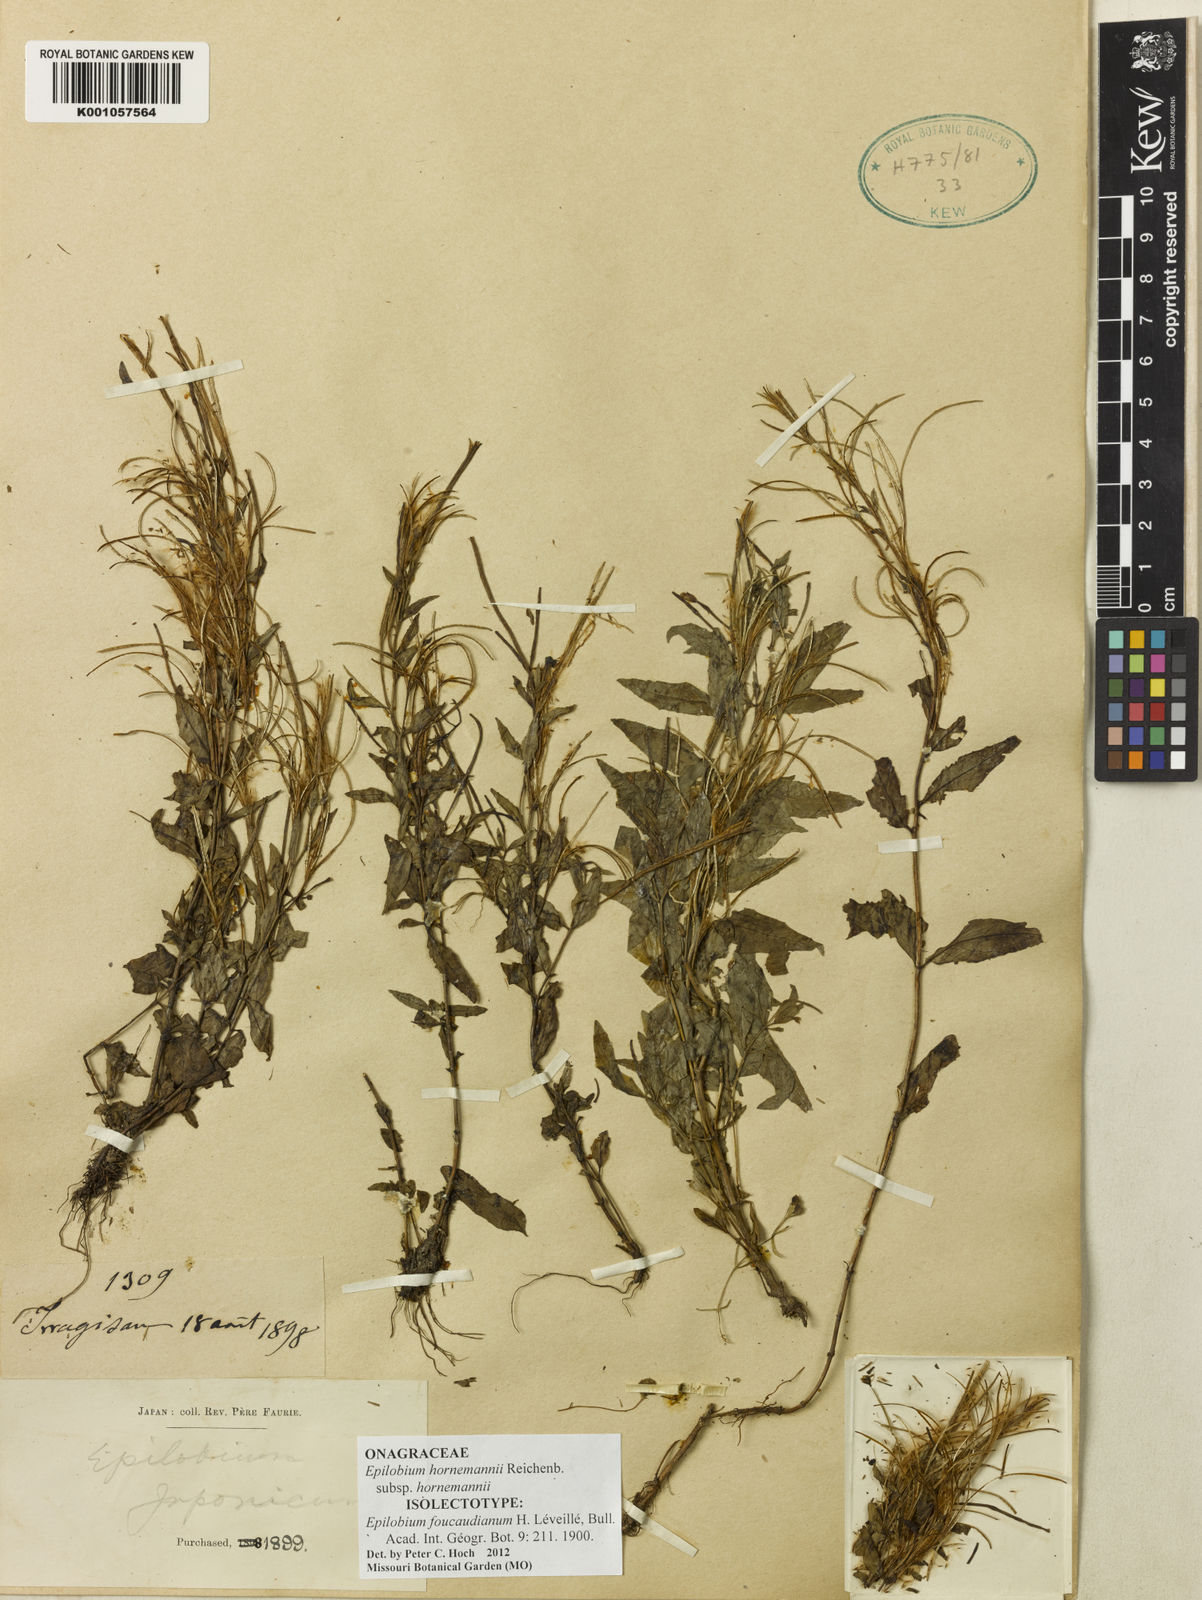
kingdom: Plantae
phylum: Tracheophyta
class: Magnoliopsida
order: Myrtales
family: Onagraceae
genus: Epilobium
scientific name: Epilobium hornemannii
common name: Hornemann's willowherb
